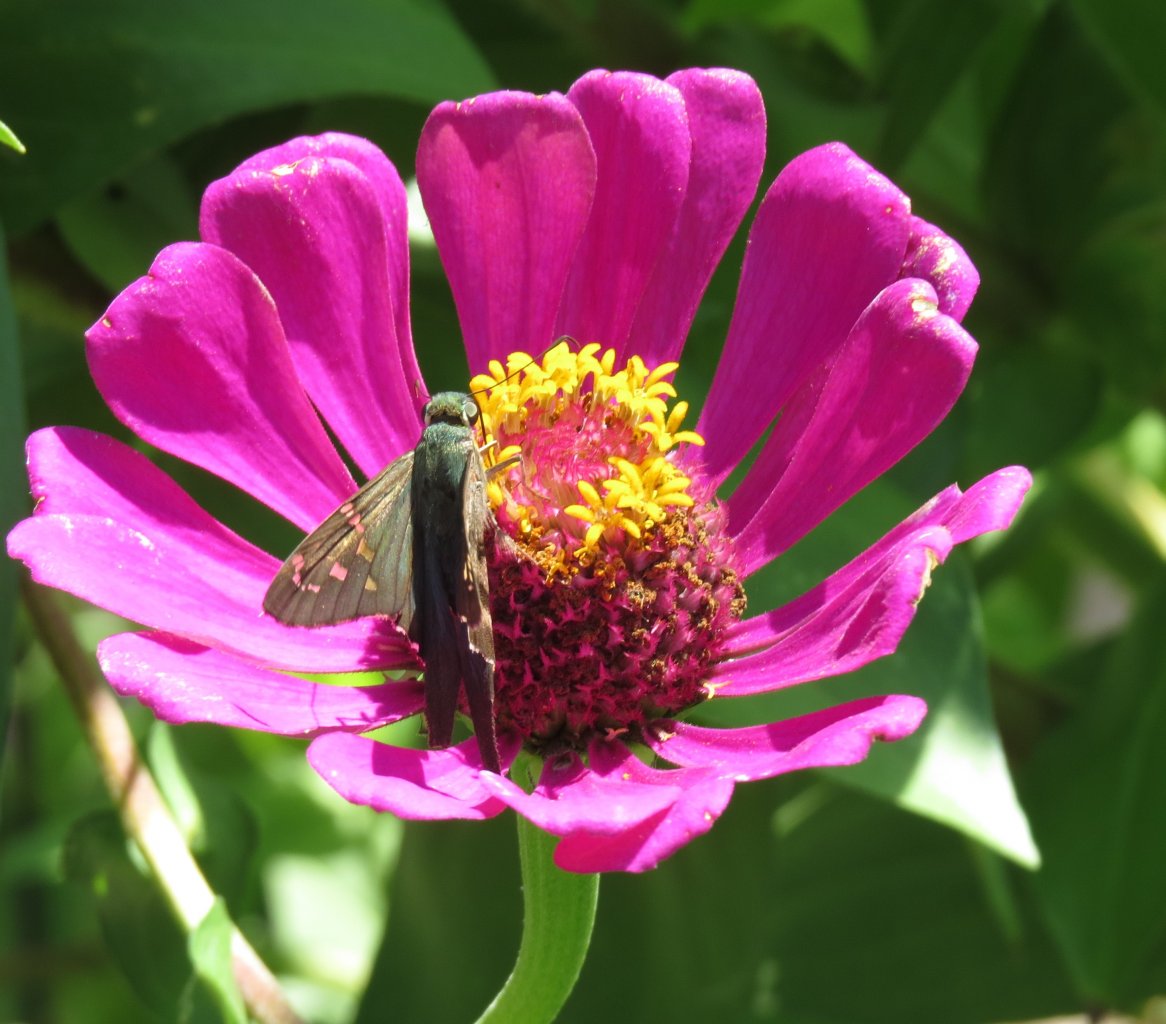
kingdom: Animalia
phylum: Arthropoda
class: Insecta
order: Lepidoptera
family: Hesperiidae
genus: Urbanus
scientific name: Urbanus proteus
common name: Long-tailed Skipper
